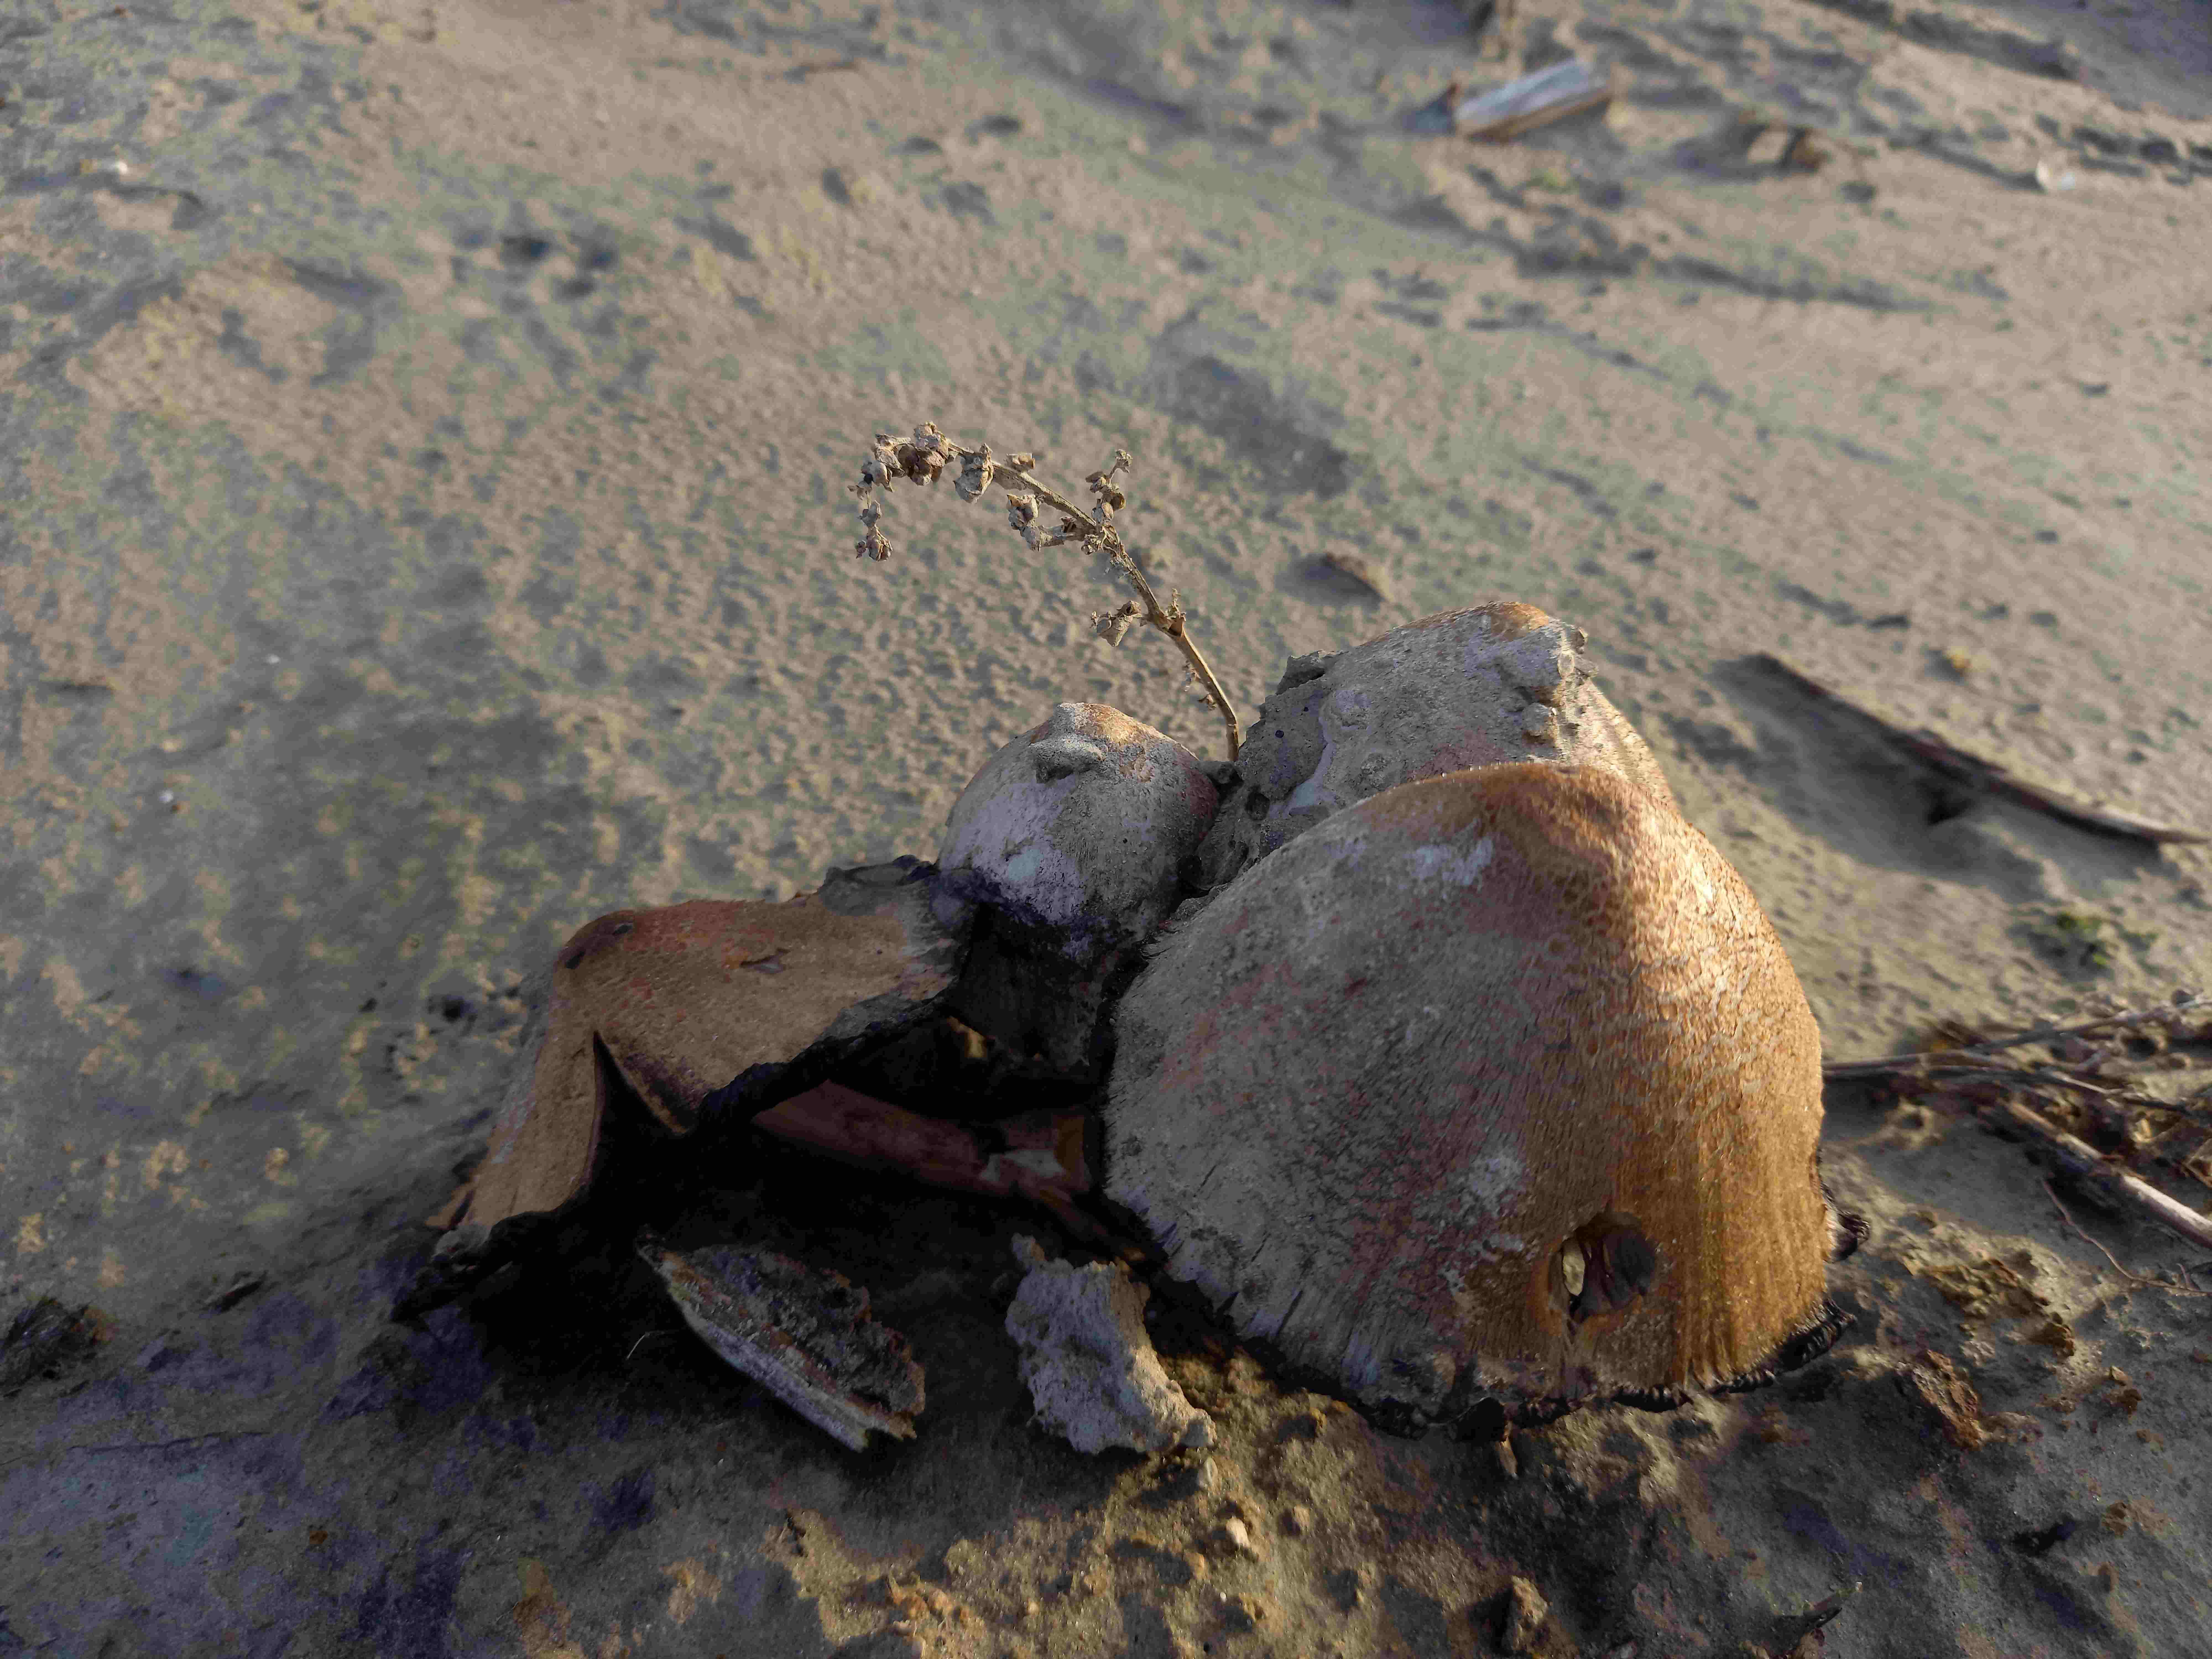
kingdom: Fungi
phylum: Basidiomycota
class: Agaricomycetes
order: Agaricales
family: Psathyrellaceae
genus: Coprinopsis
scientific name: Coprinopsis romagnesiana
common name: brunskællet blækhat
